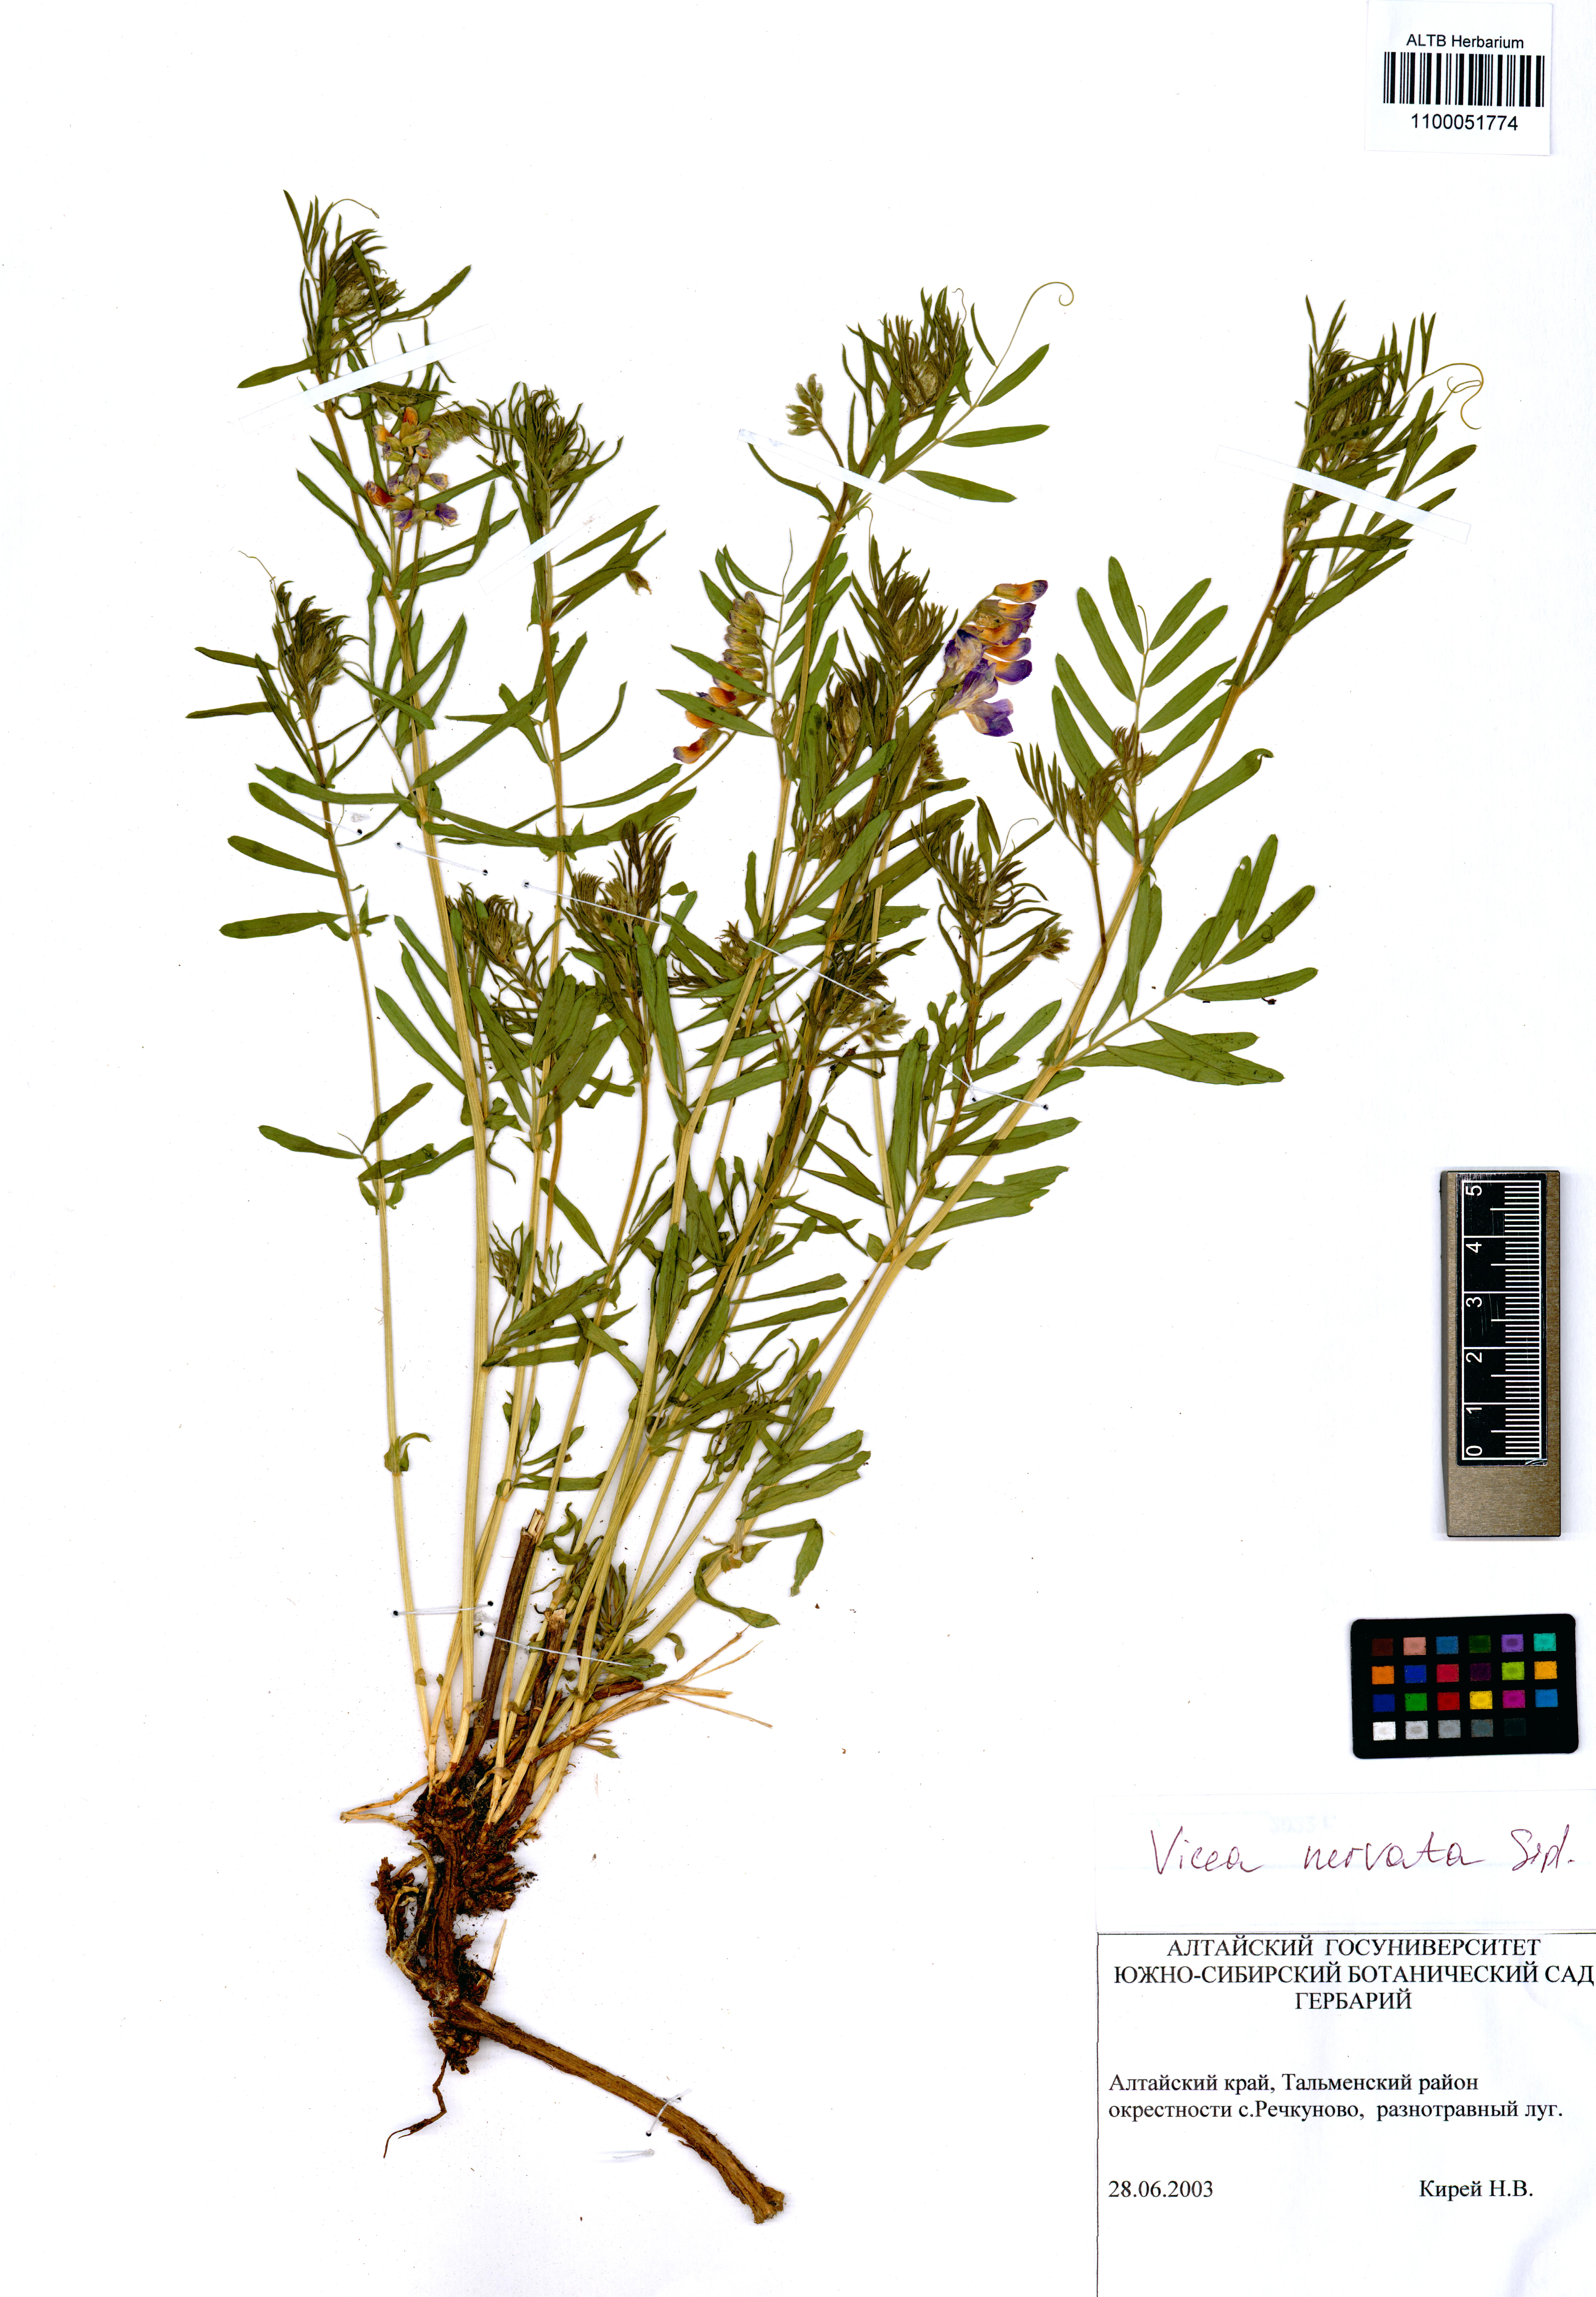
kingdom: Plantae
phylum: Tracheophyta
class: Magnoliopsida
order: Fabales
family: Fabaceae
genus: Vicia
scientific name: Vicia multicaulis
